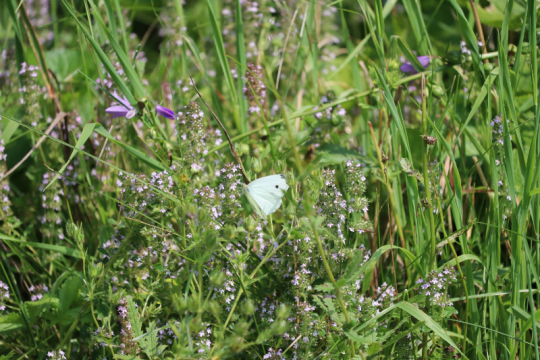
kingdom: Animalia
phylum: Arthropoda
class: Insecta
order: Lepidoptera
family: Pieridae
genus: Pieris
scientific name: Pieris rapae
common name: Cabbage White
